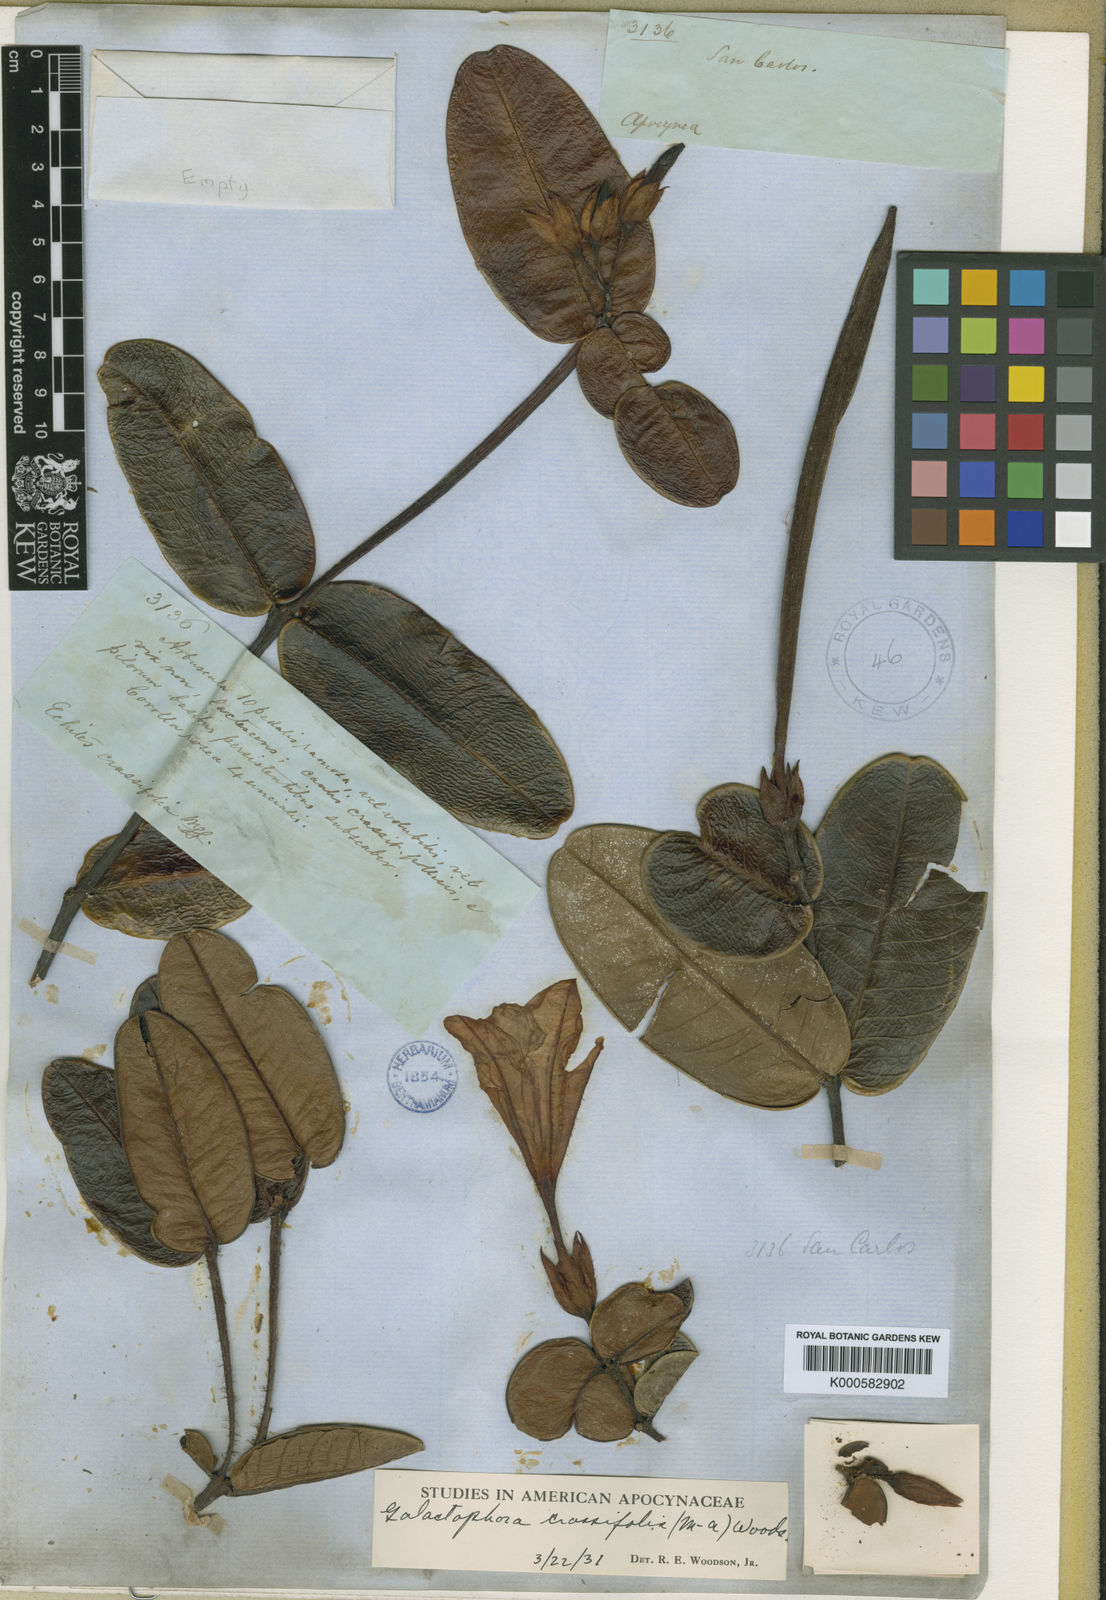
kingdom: Plantae
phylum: Tracheophyta
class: Magnoliopsida
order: Gentianales
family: Apocynaceae
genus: Galactophora
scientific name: Galactophora
